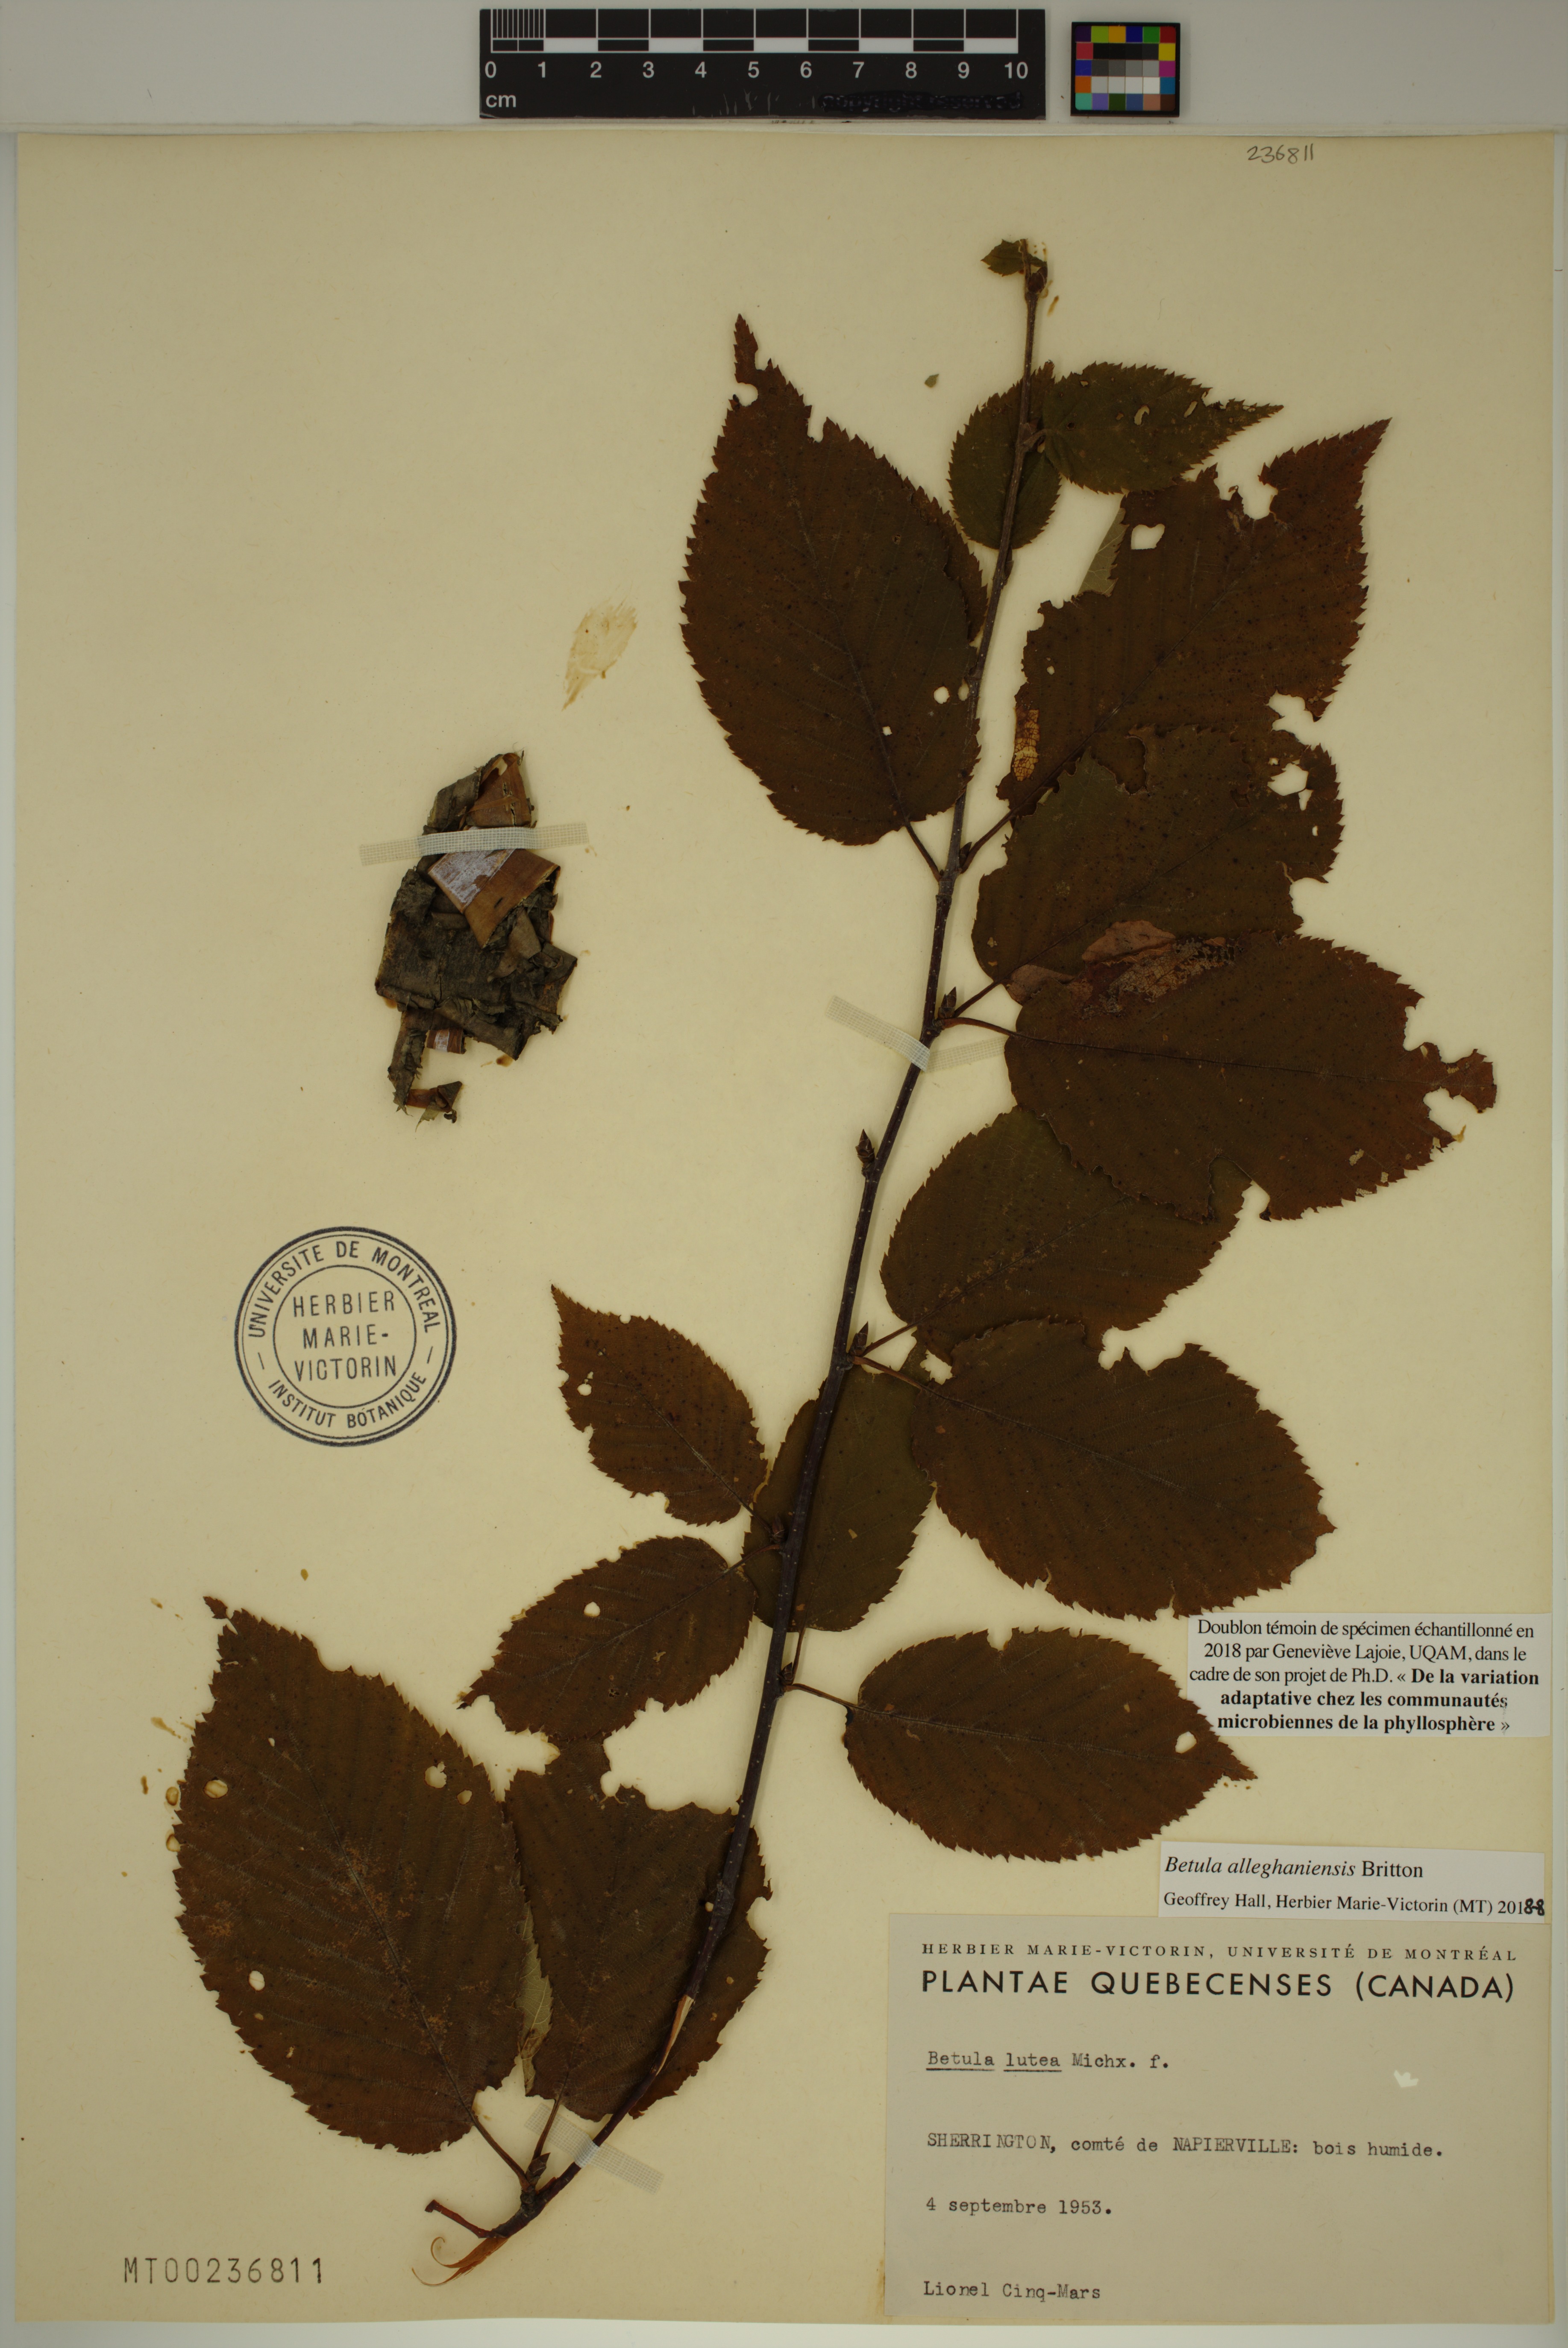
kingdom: Plantae
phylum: Tracheophyta
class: Magnoliopsida
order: Fagales
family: Betulaceae
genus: Betula
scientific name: Betula alleghaniensis
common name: Yellow birch
